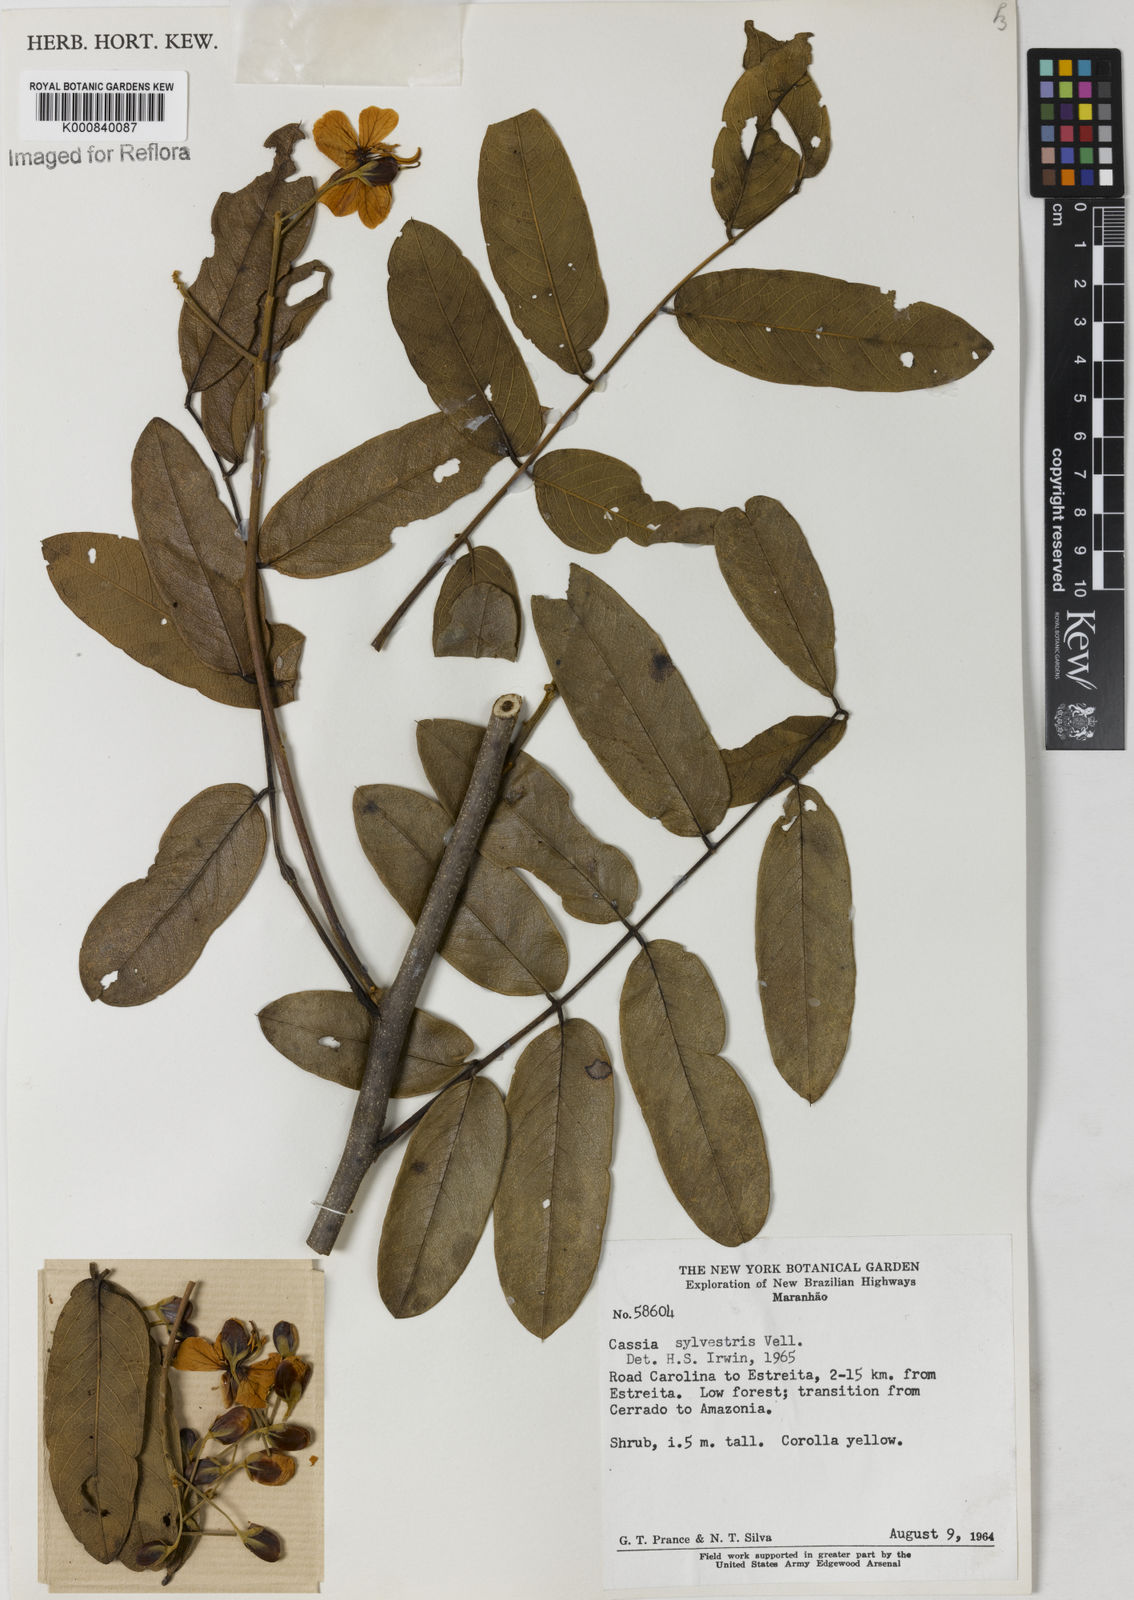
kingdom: Plantae
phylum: Tracheophyta
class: Magnoliopsida
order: Fabales
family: Fabaceae
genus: Senna
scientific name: Senna silvestris
